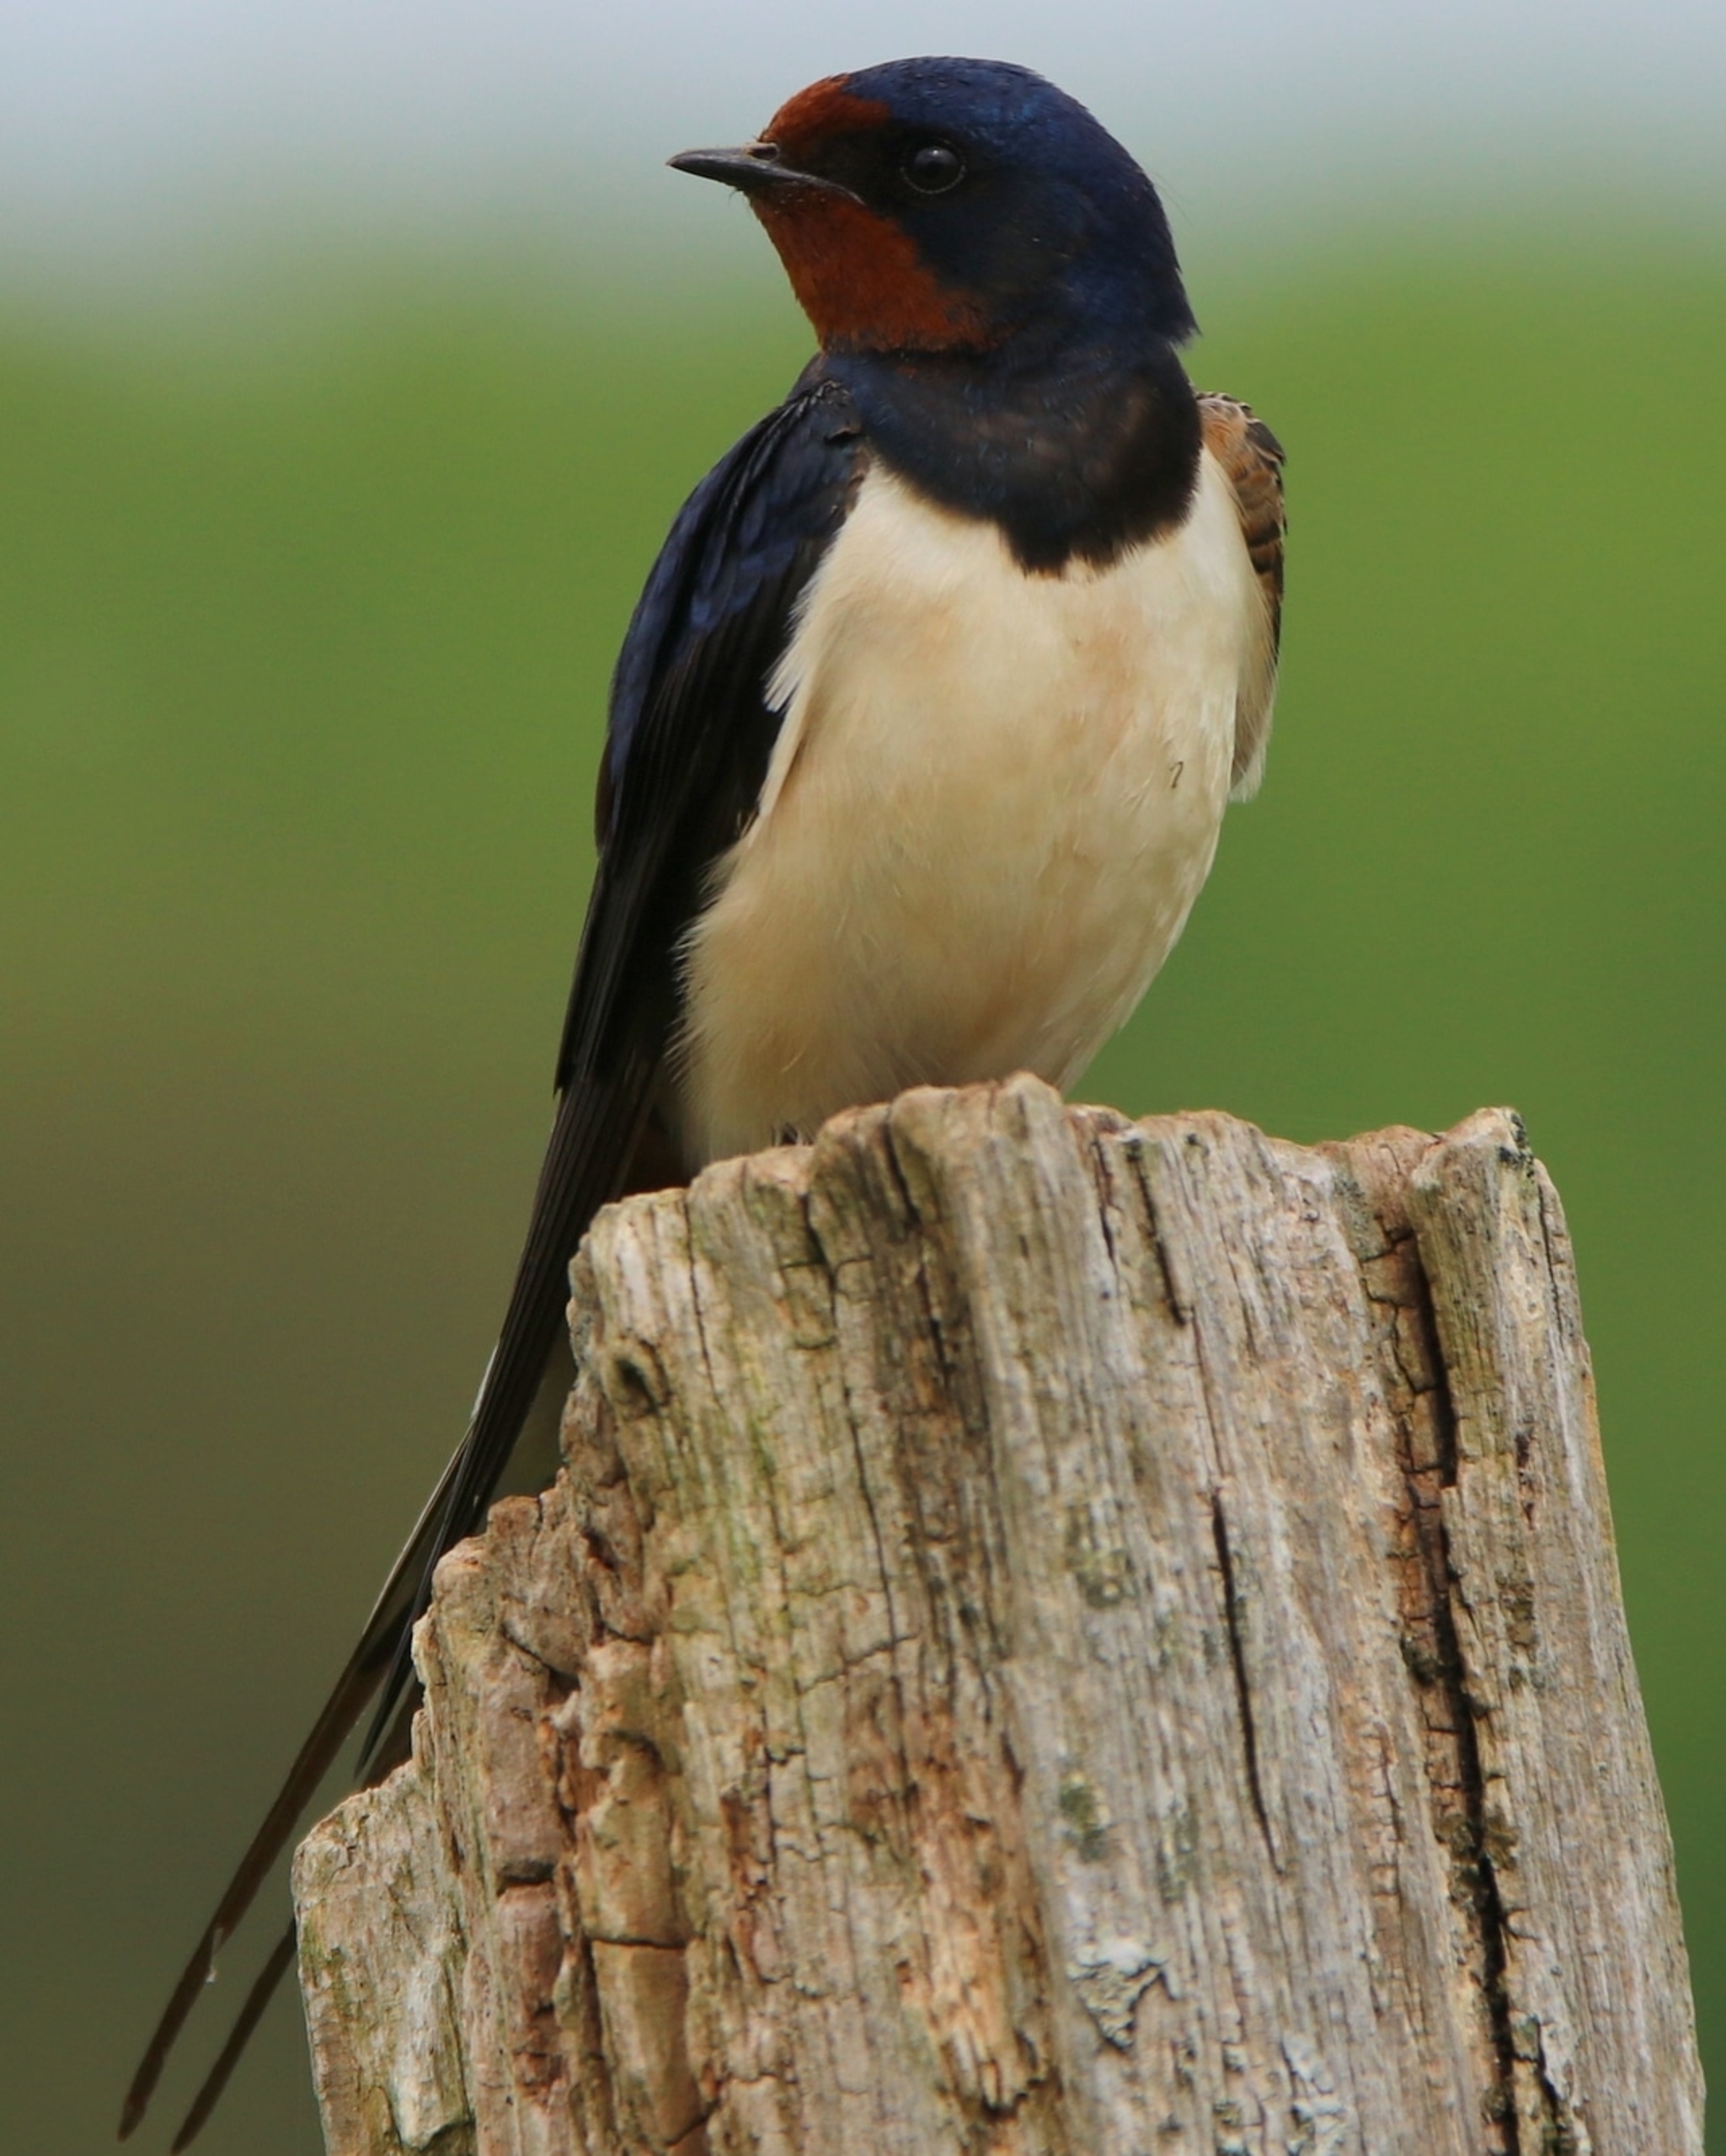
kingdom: Animalia
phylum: Chordata
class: Aves
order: Passeriformes
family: Hirundinidae
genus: Hirundo
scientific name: Hirundo rustica
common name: Landsvale
